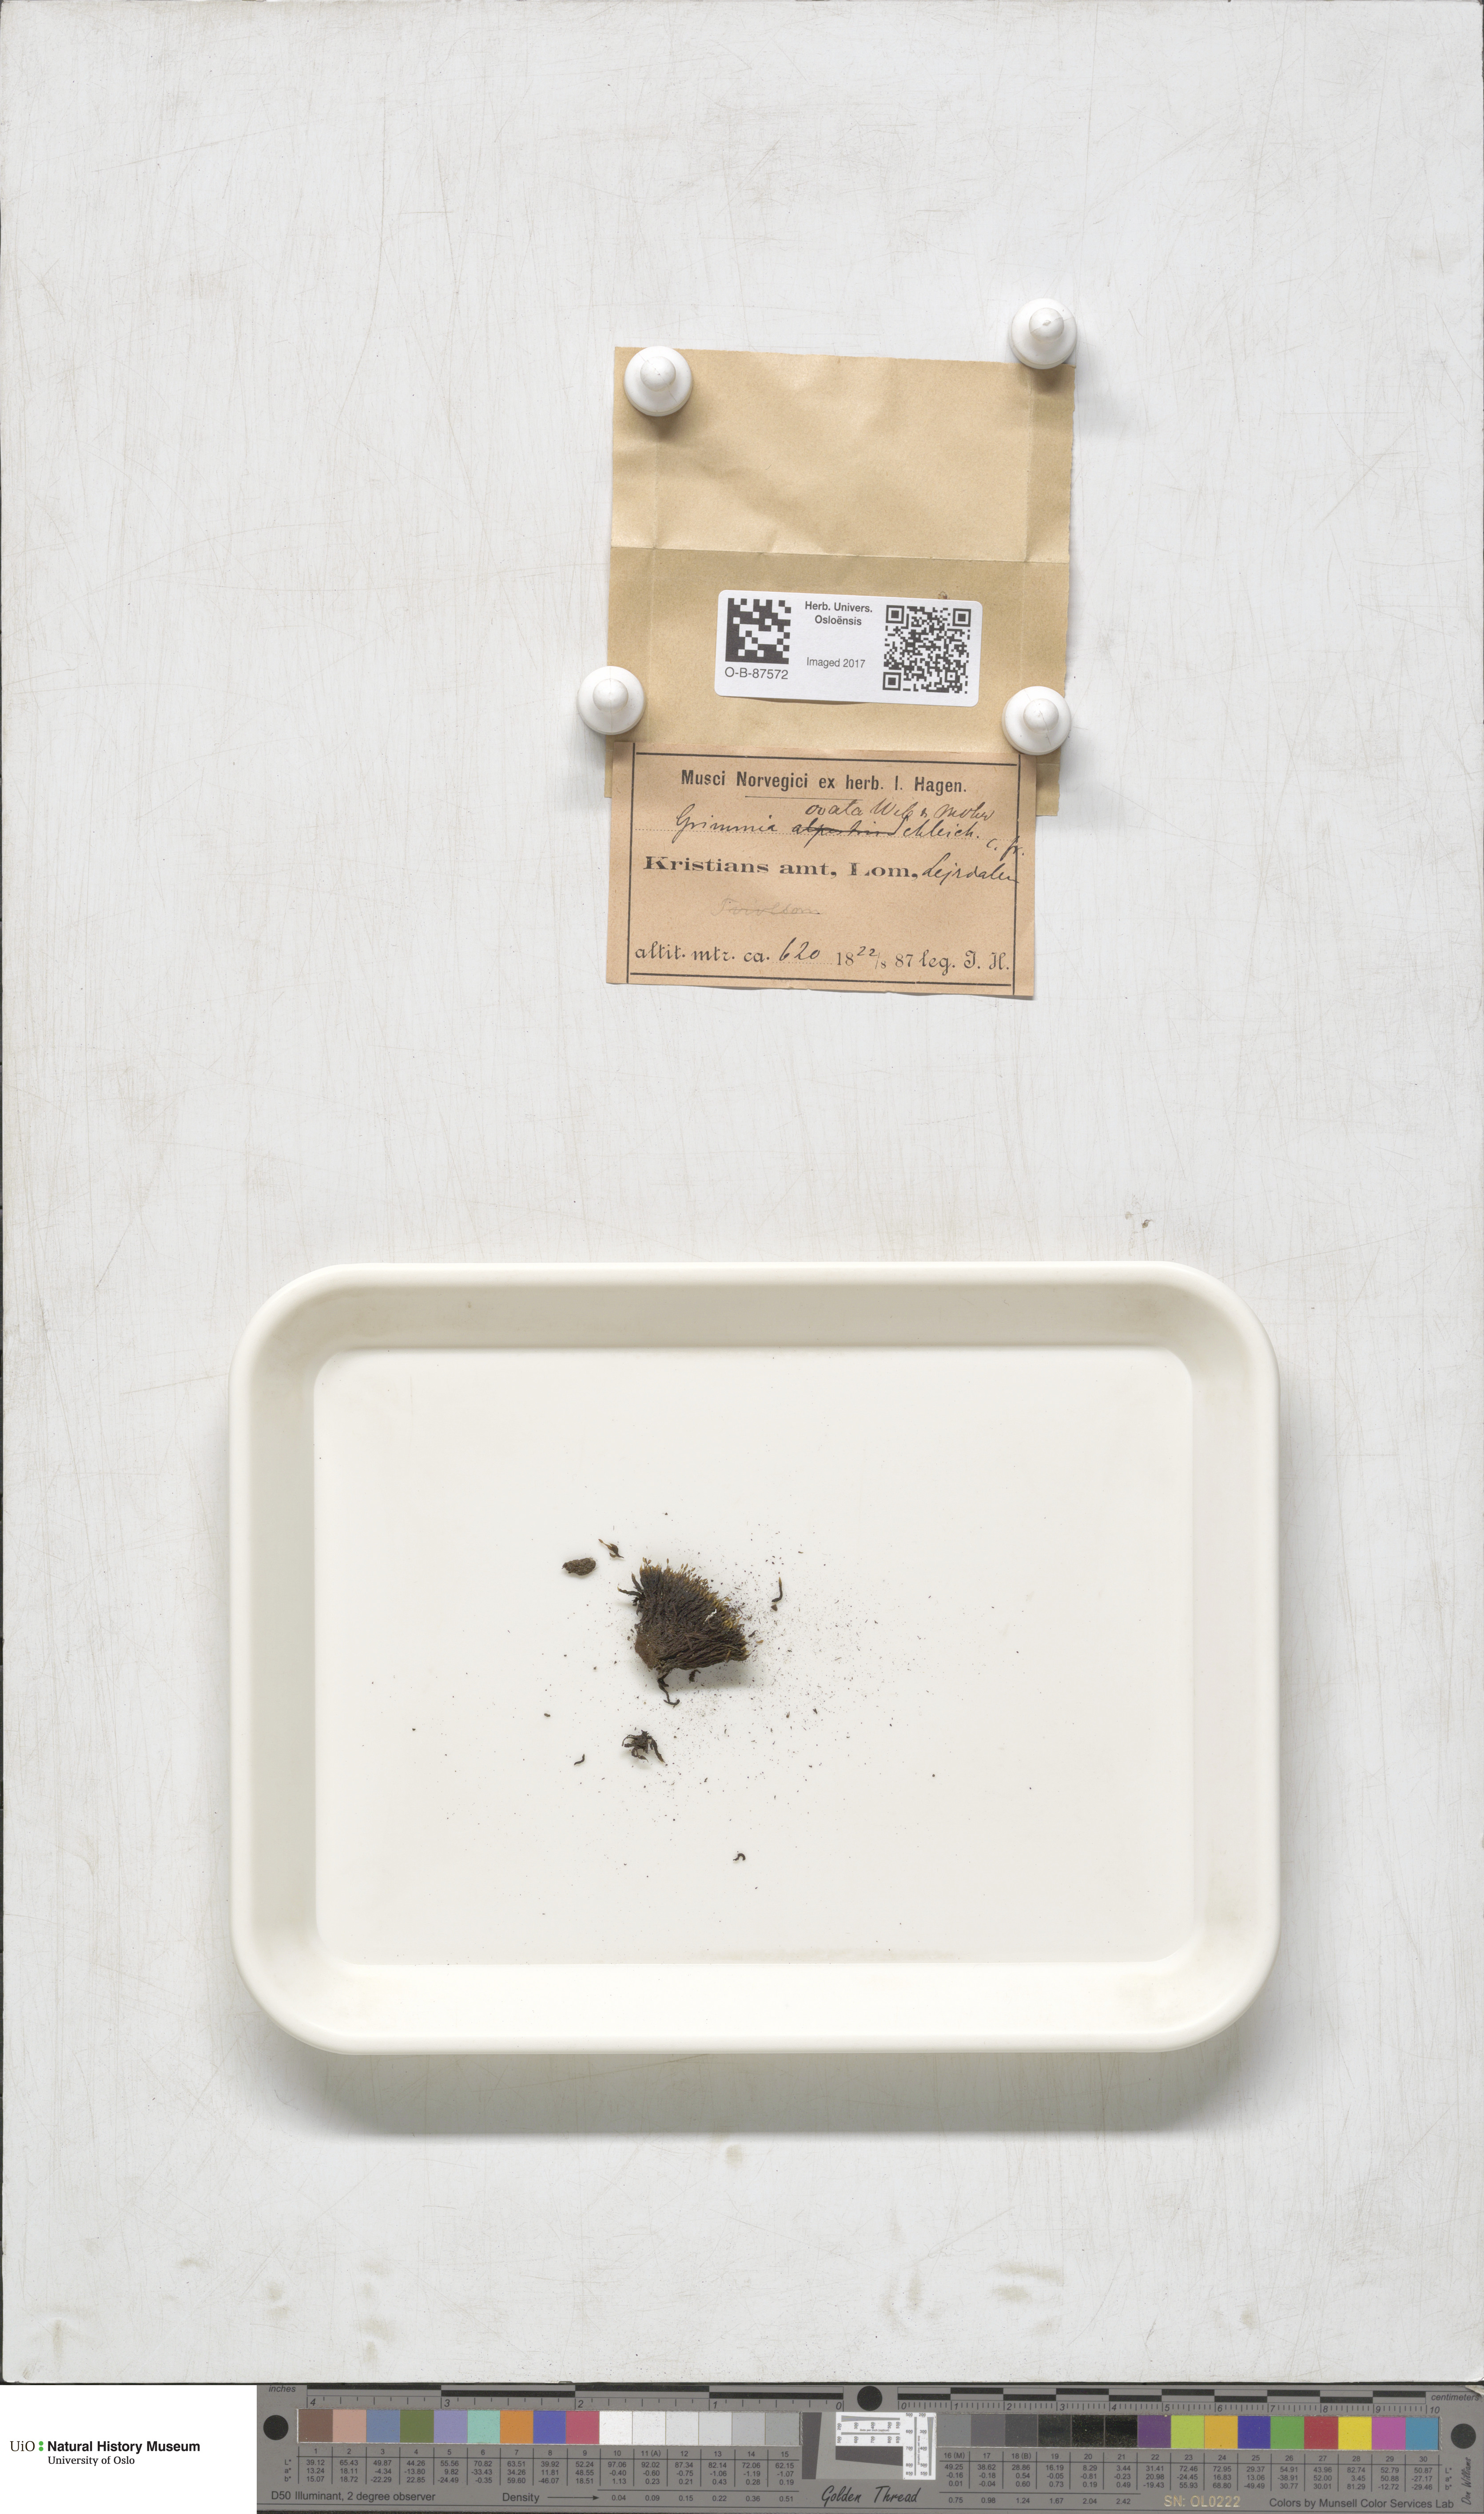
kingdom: Plantae
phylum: Bryophyta
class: Bryopsida
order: Grimmiales
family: Grimmiaceae
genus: Grimmia
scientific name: Grimmia ovalis
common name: Oval grimmia
